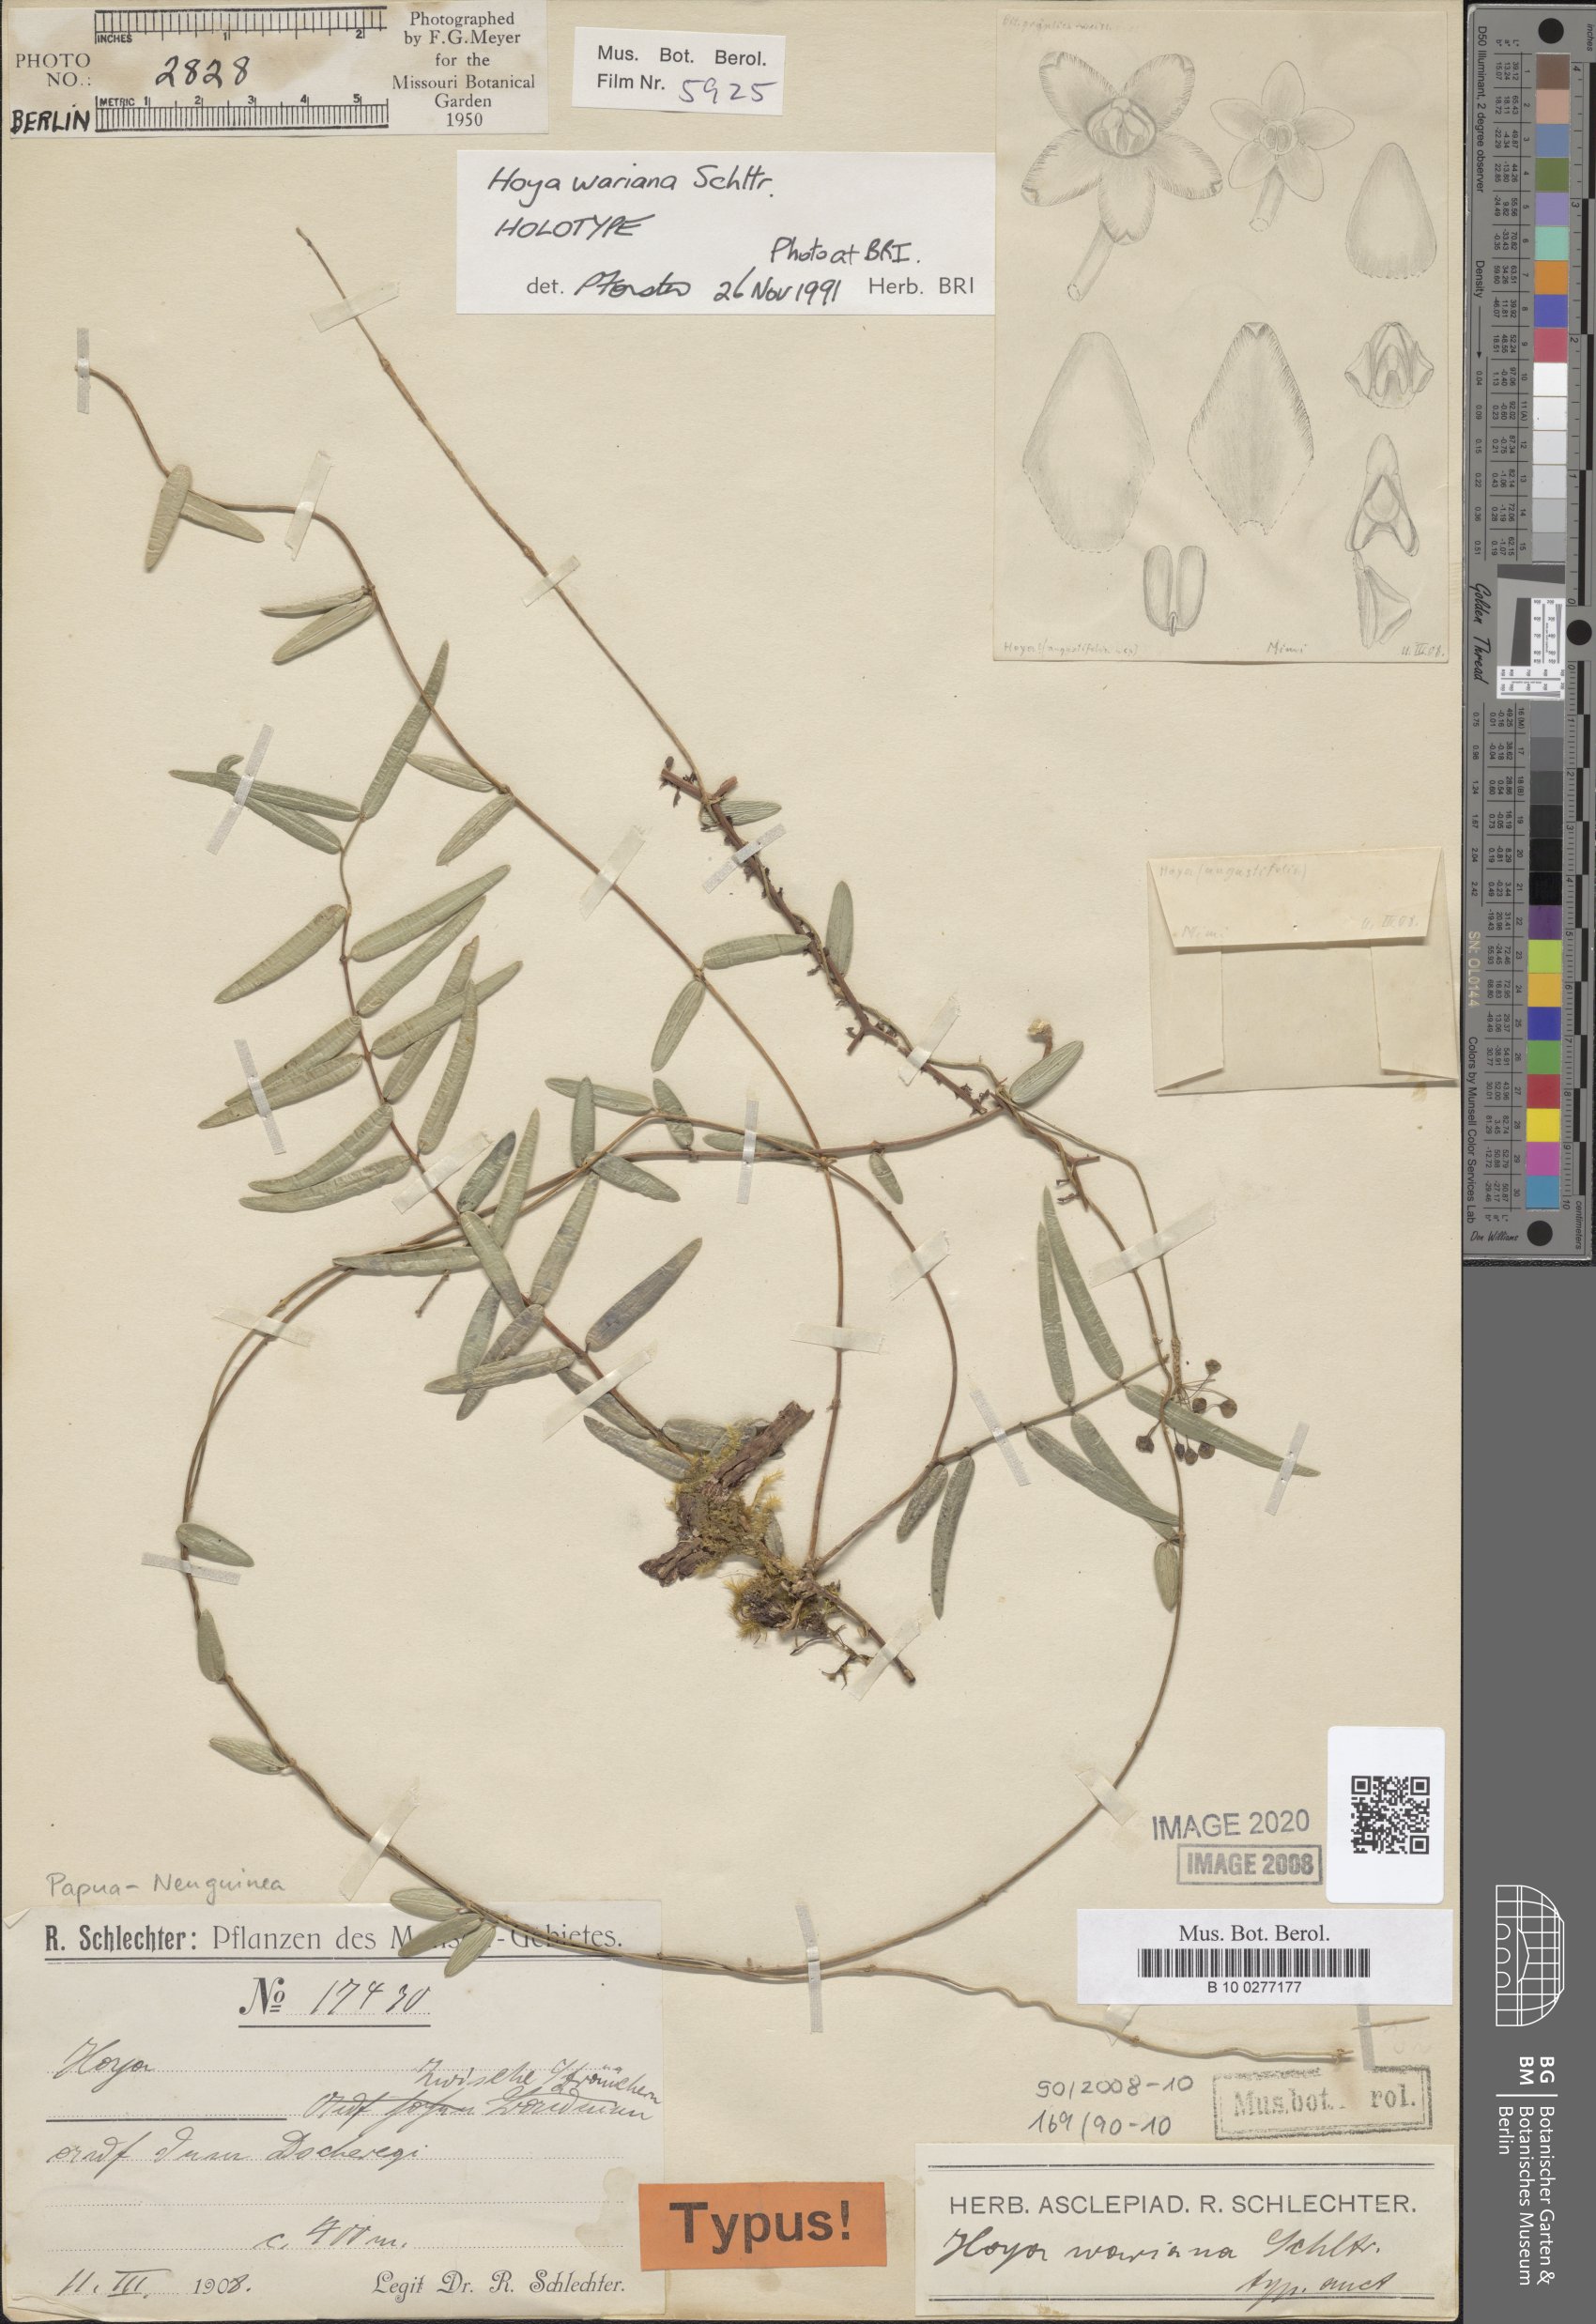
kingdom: Plantae
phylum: Tracheophyta
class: Magnoliopsida
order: Gentianales
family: Apocynaceae
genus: Hoya
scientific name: Hoya wariana
